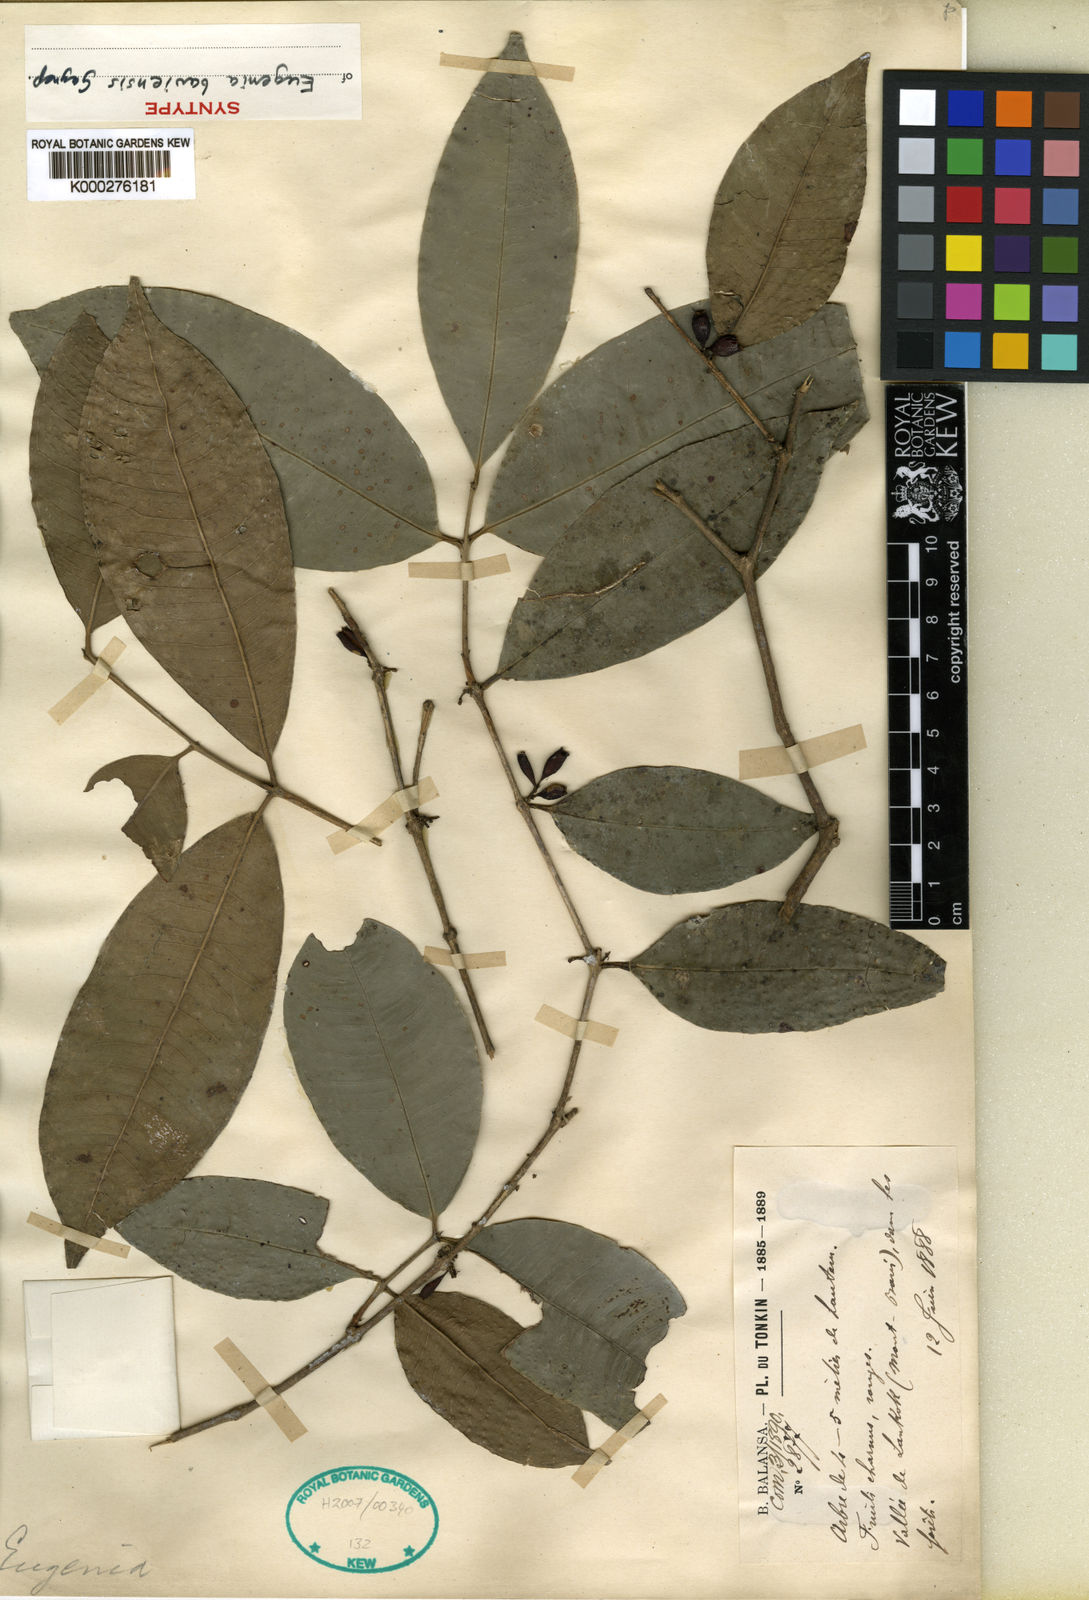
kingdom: Plantae
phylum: Tracheophyta
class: Magnoliopsida
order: Myrtales
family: Myrtaceae
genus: Syzygium
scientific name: Syzygium claviflorum
